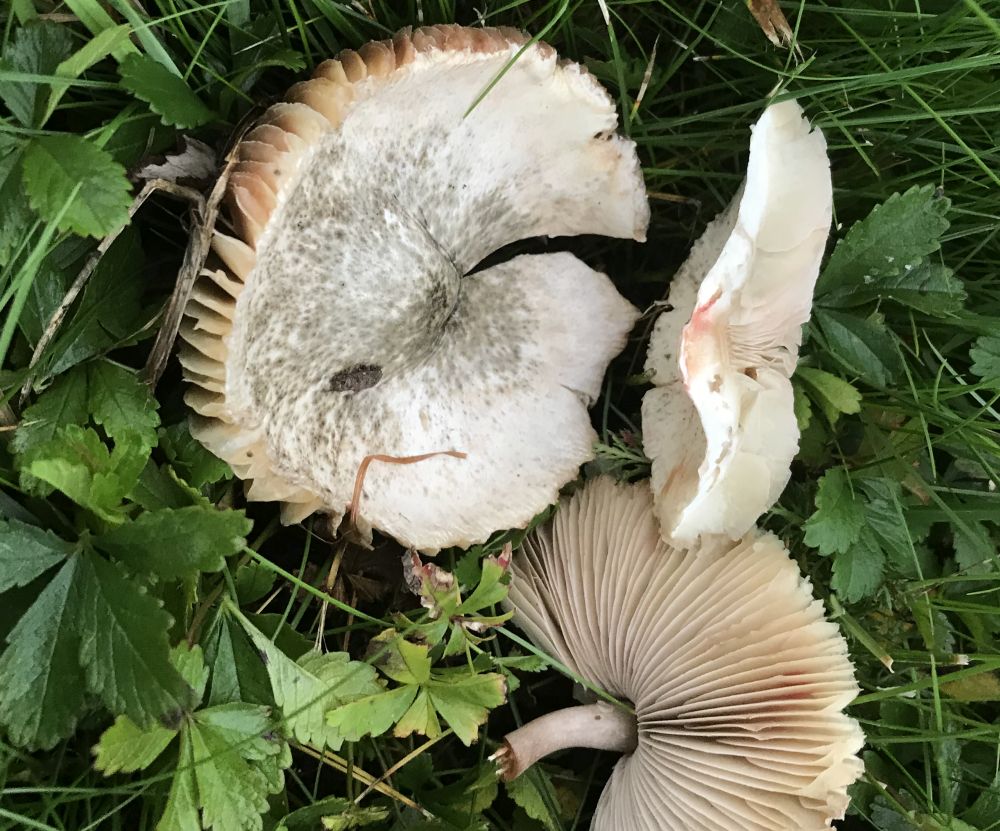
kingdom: Fungi
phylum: Basidiomycota
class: Agaricomycetes
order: Agaricales
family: Agaricaceae
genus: Leucoagaricus
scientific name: Leucoagaricus leucothites
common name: rosabladet silkehat
